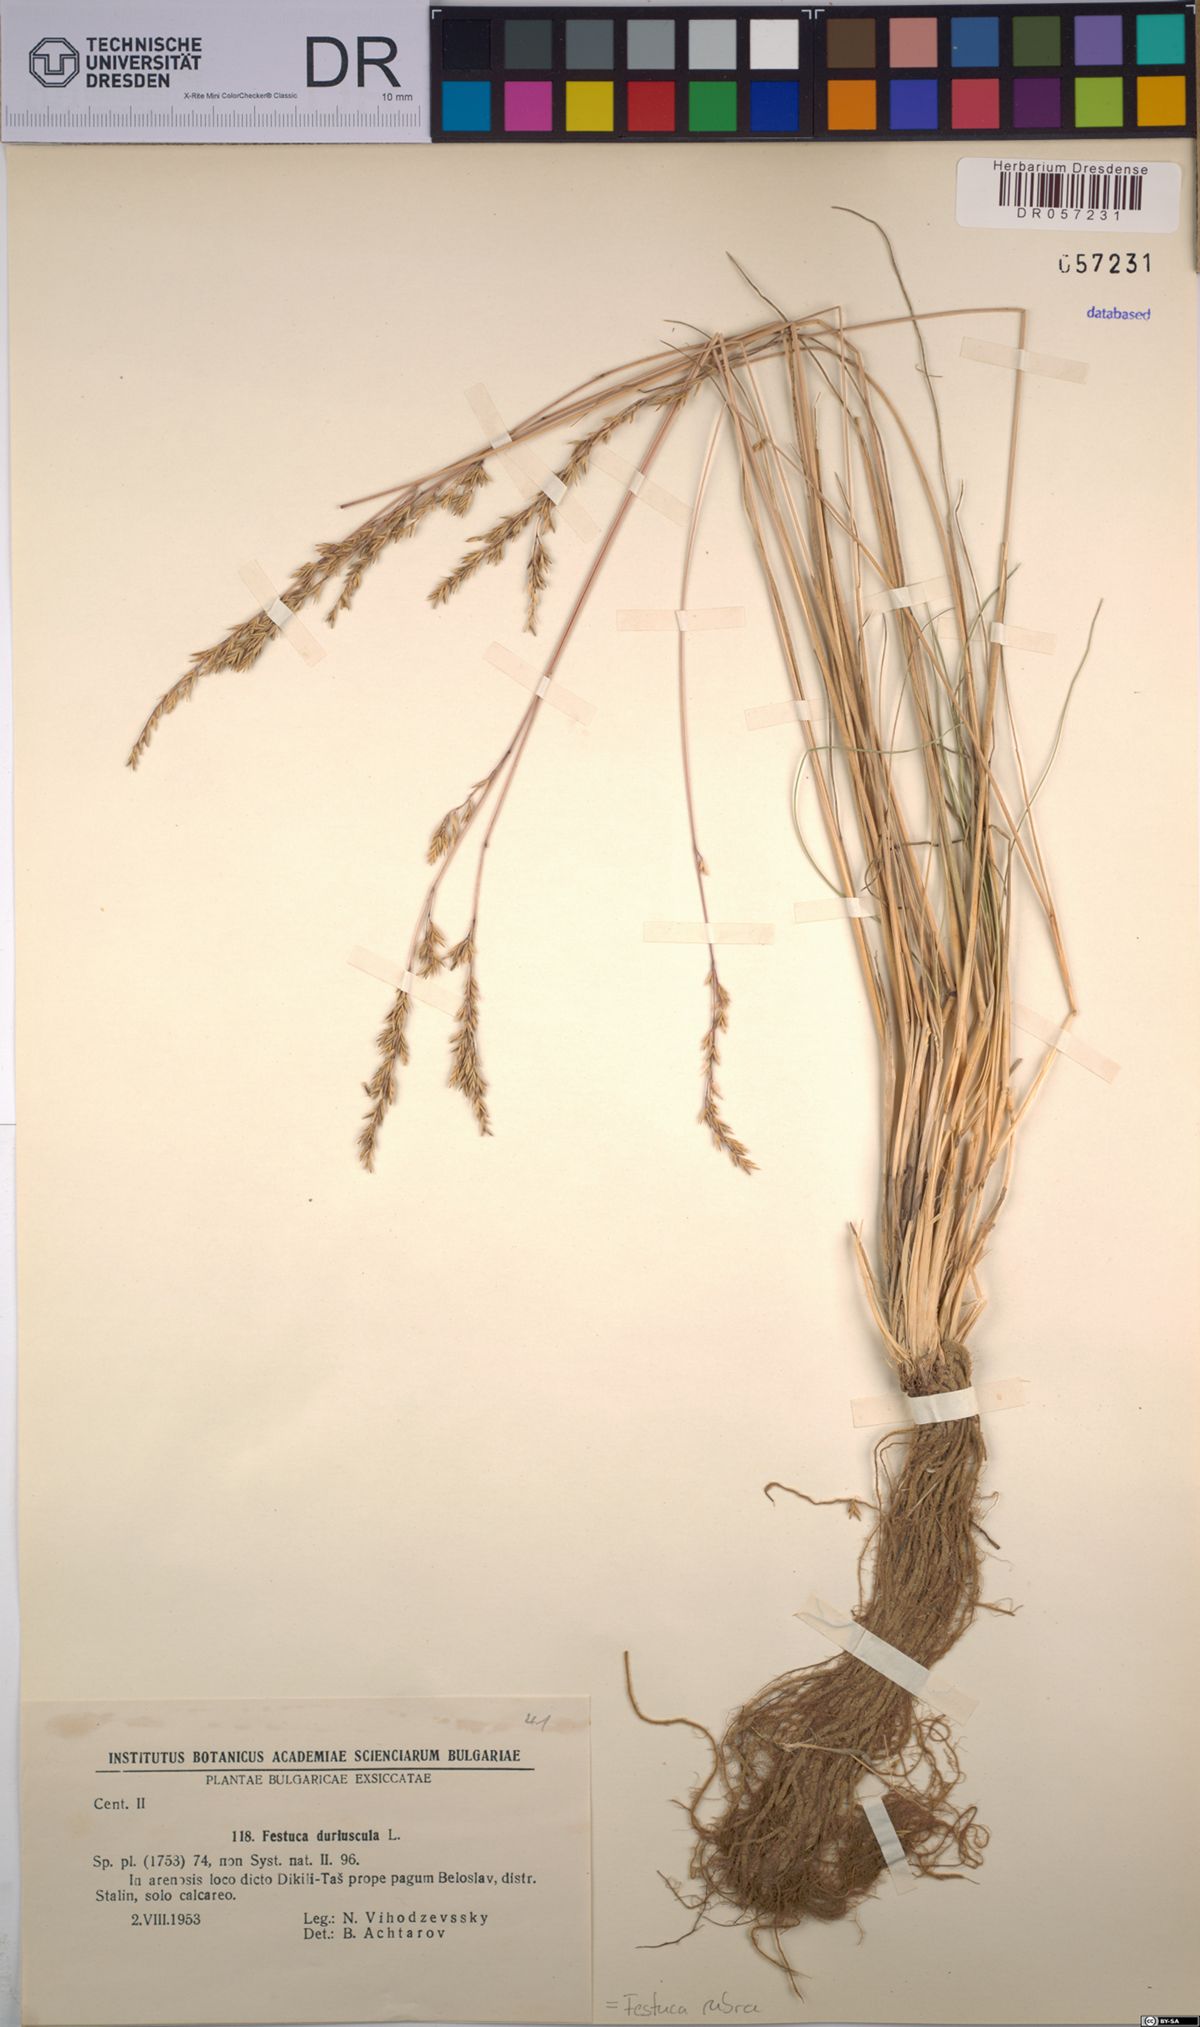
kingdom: Plantae
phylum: Tracheophyta
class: Liliopsida
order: Poales
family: Poaceae
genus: Festuca
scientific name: Festuca rubra
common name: Red fescue
